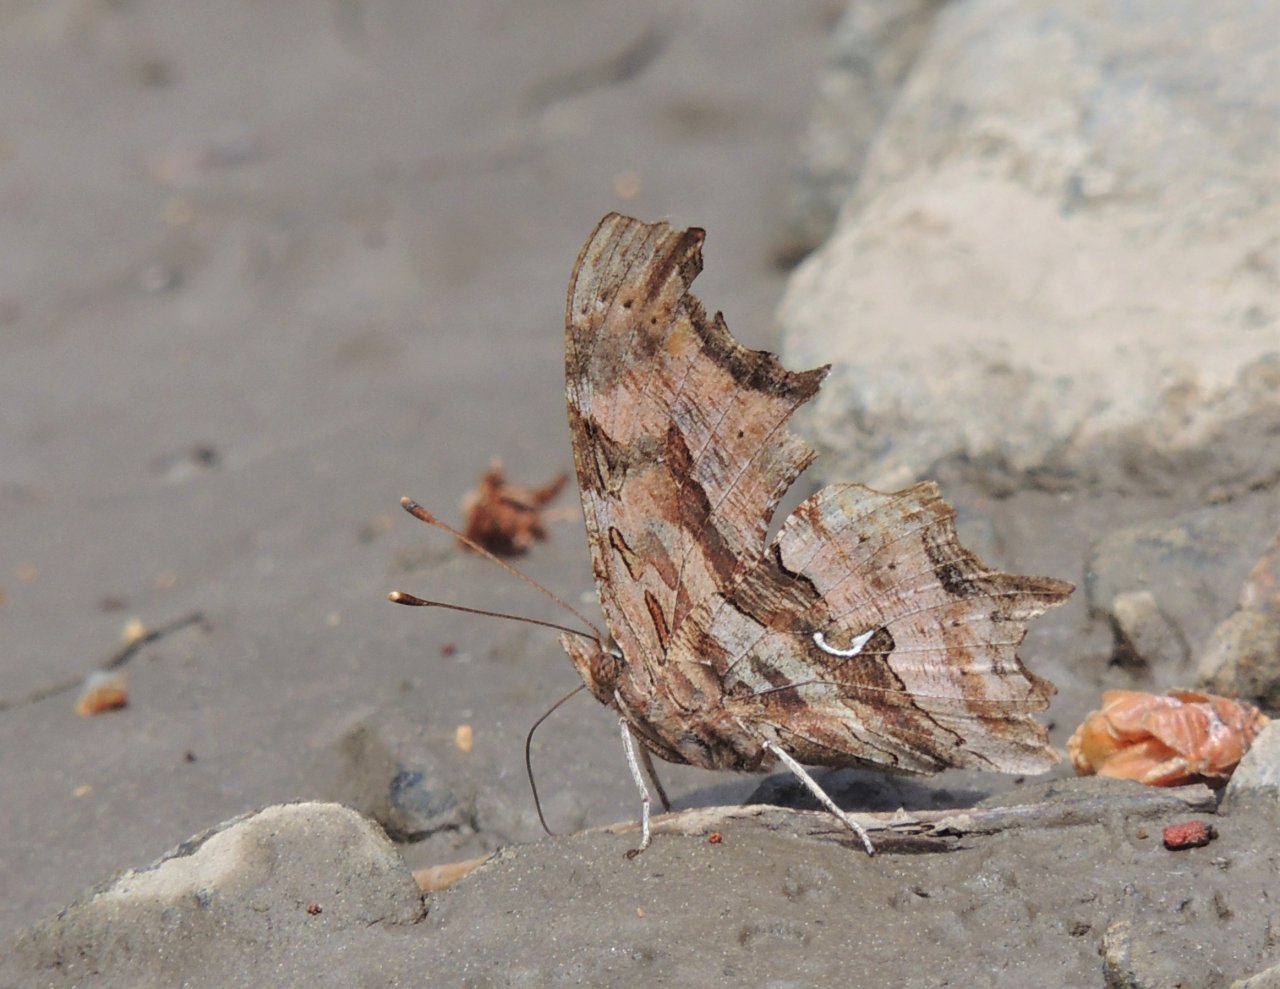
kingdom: Animalia
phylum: Arthropoda
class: Insecta
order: Lepidoptera
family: Nymphalidae
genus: Polygonia
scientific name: Polygonia satyrus
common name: Satyr Comma
